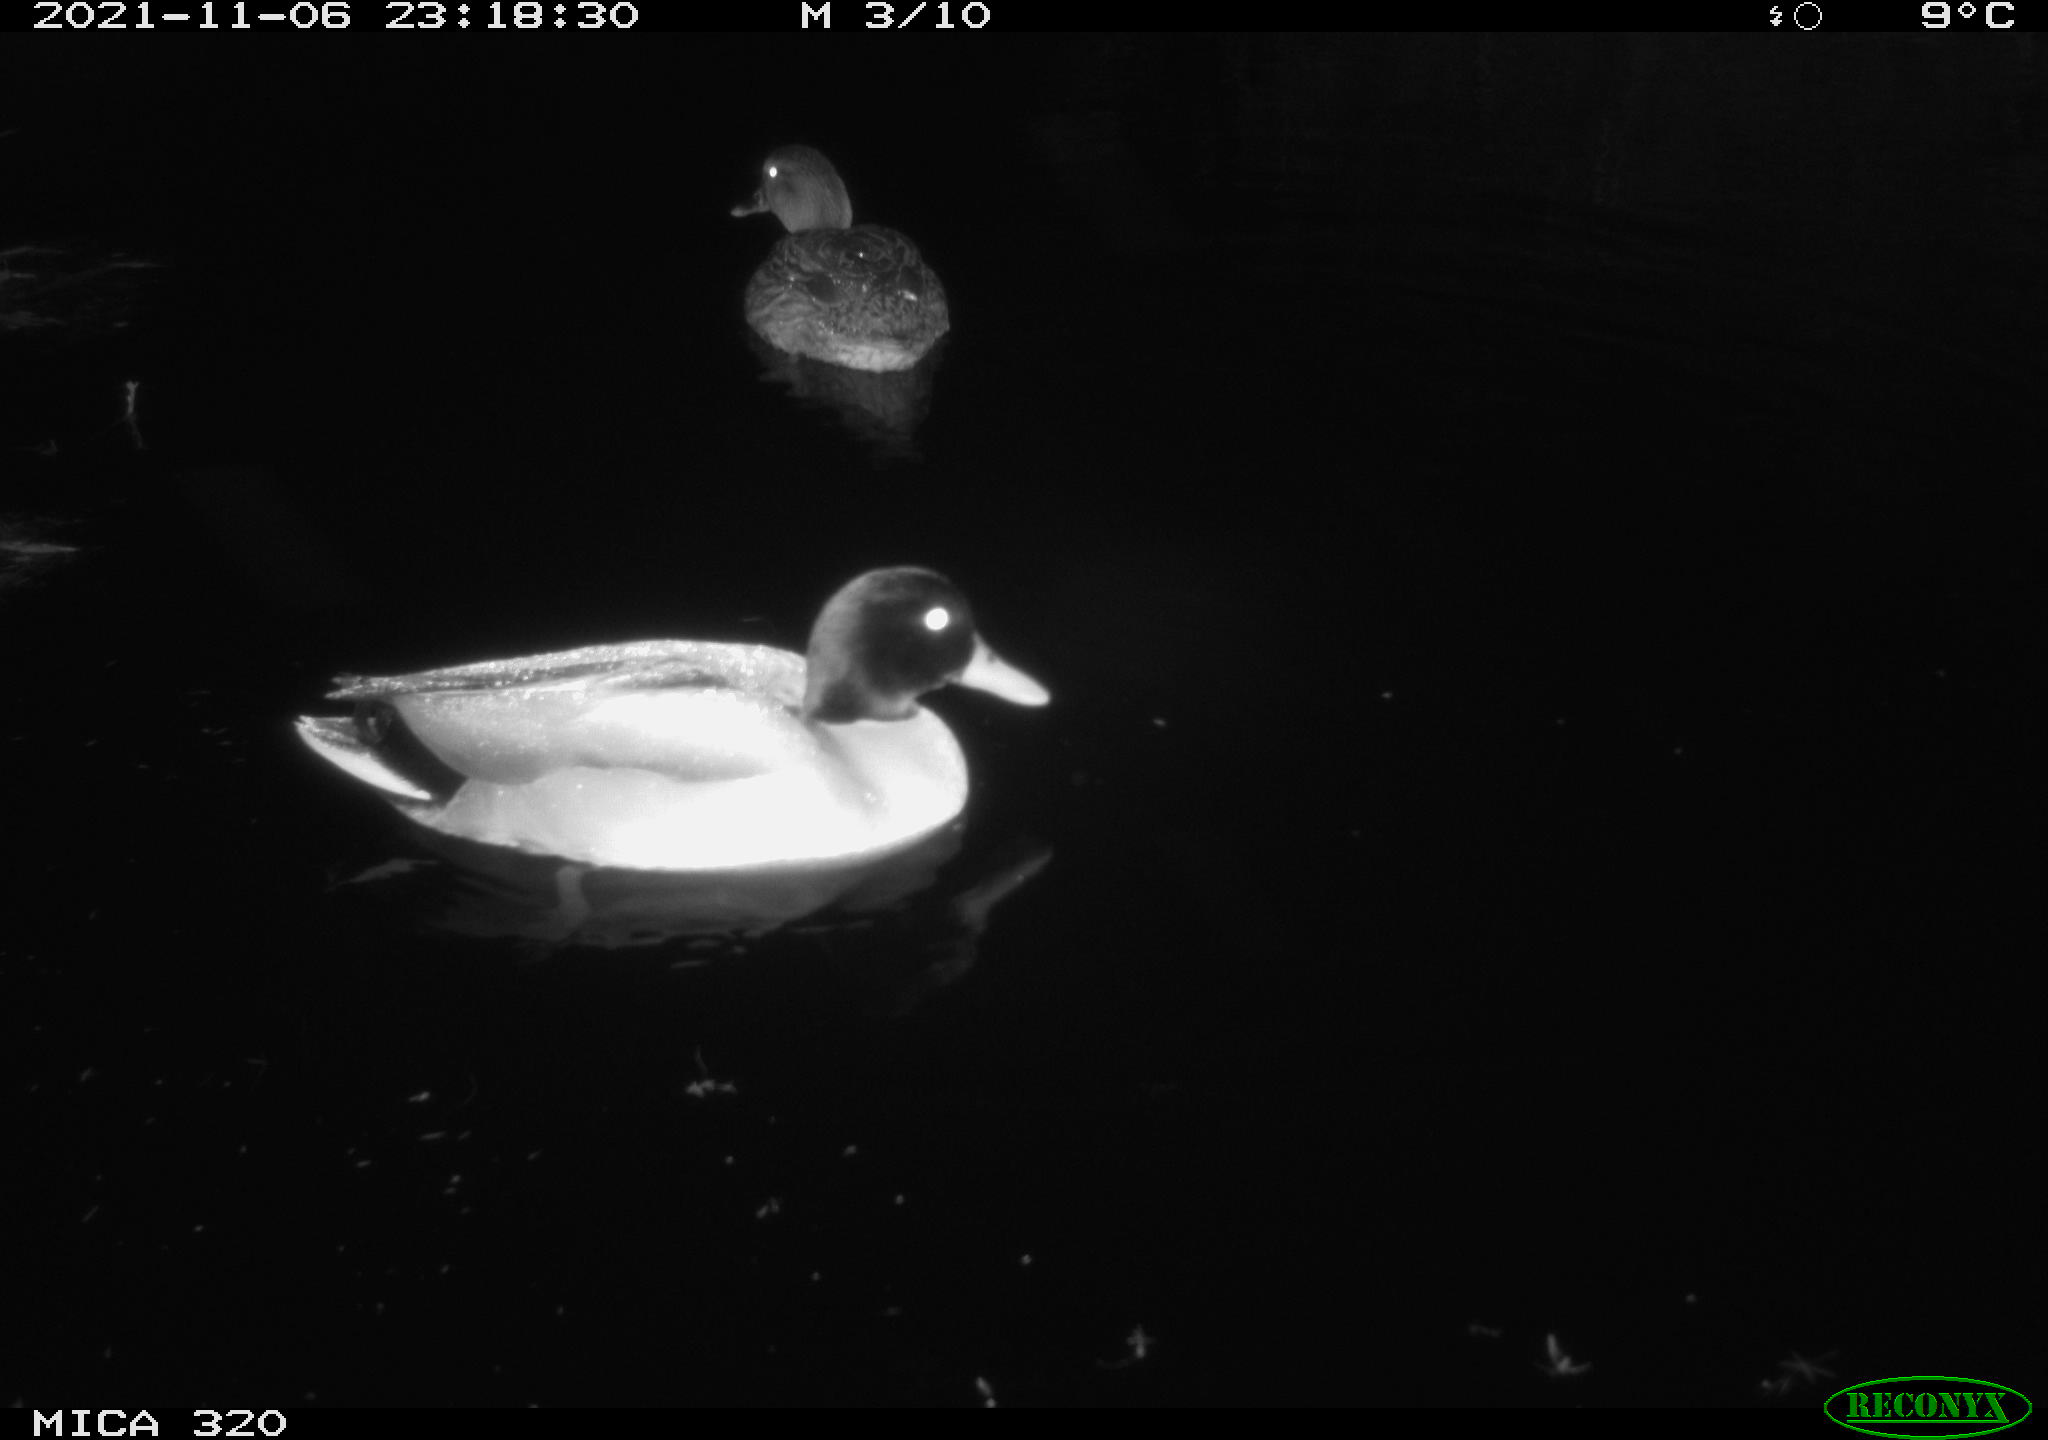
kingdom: Animalia
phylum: Chordata
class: Aves
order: Anseriformes
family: Anatidae
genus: Mareca
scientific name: Mareca strepera
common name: Gadwall
